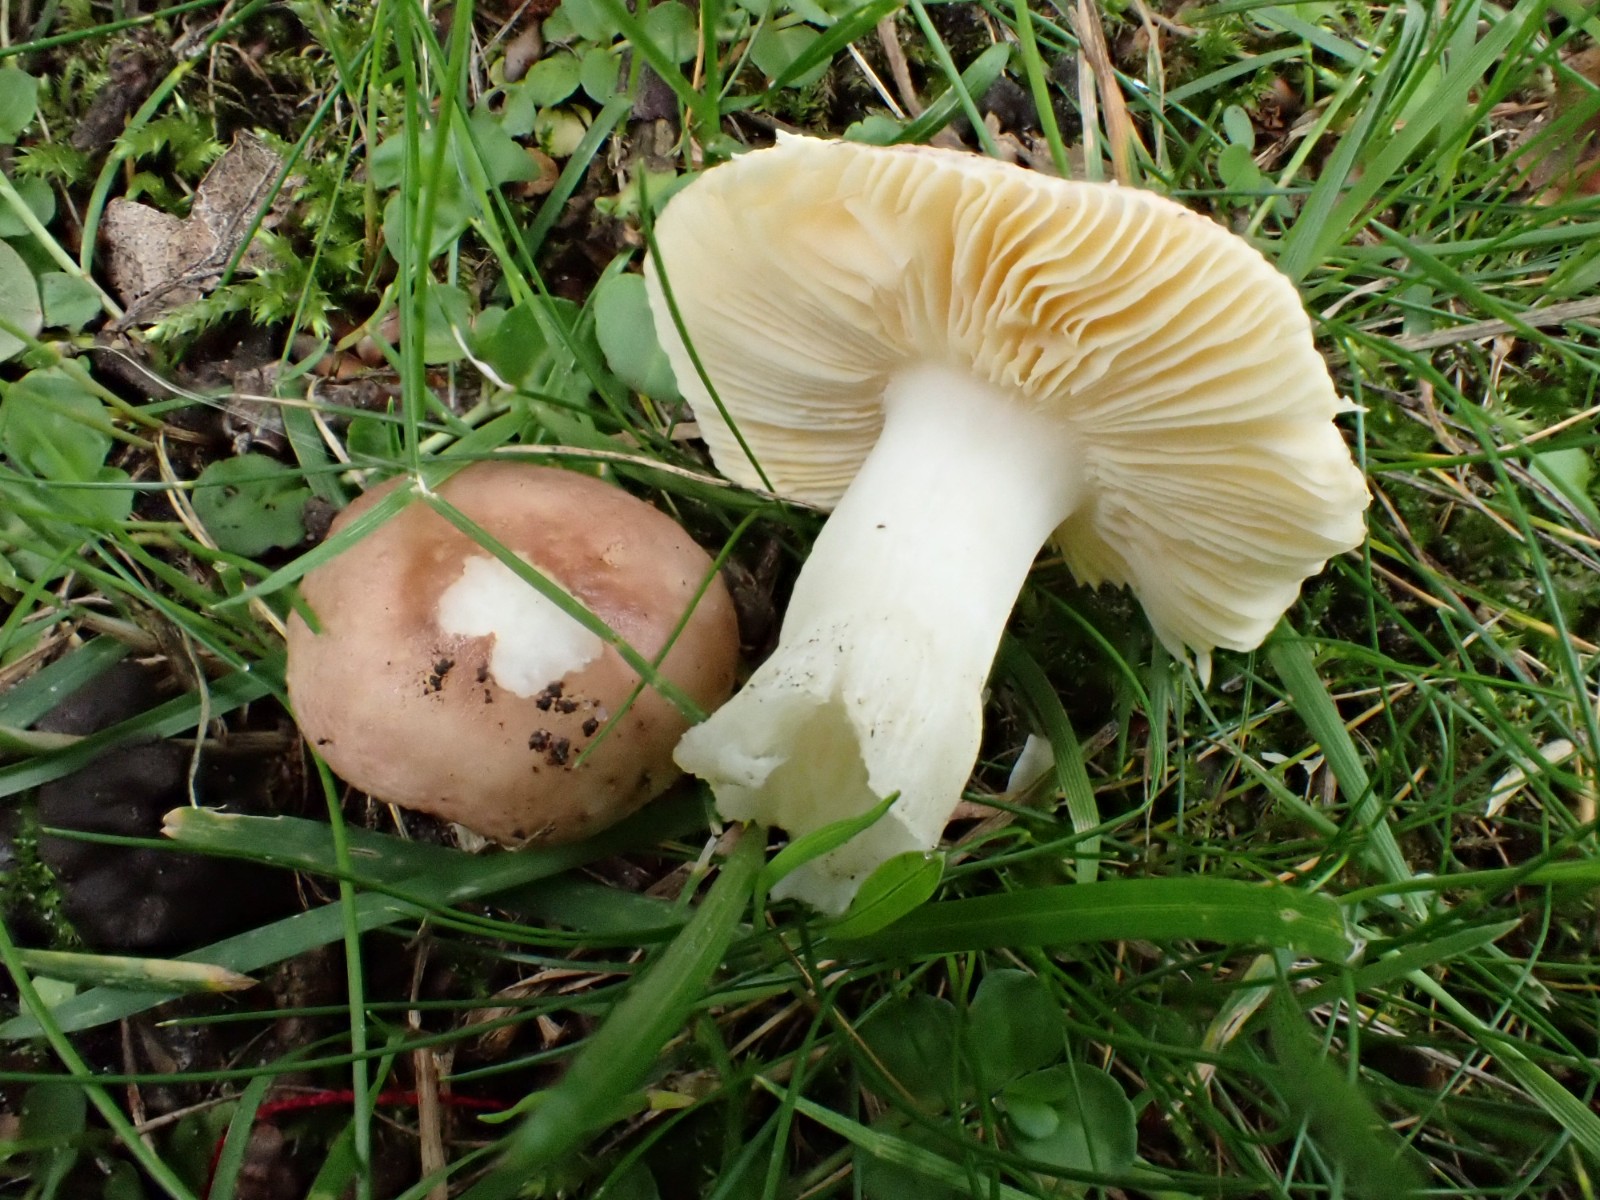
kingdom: Fungi
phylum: Basidiomycota
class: Agaricomycetes
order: Russulales
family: Russulaceae
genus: Russula
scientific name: Russula cessans
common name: fyrre-skørhat
